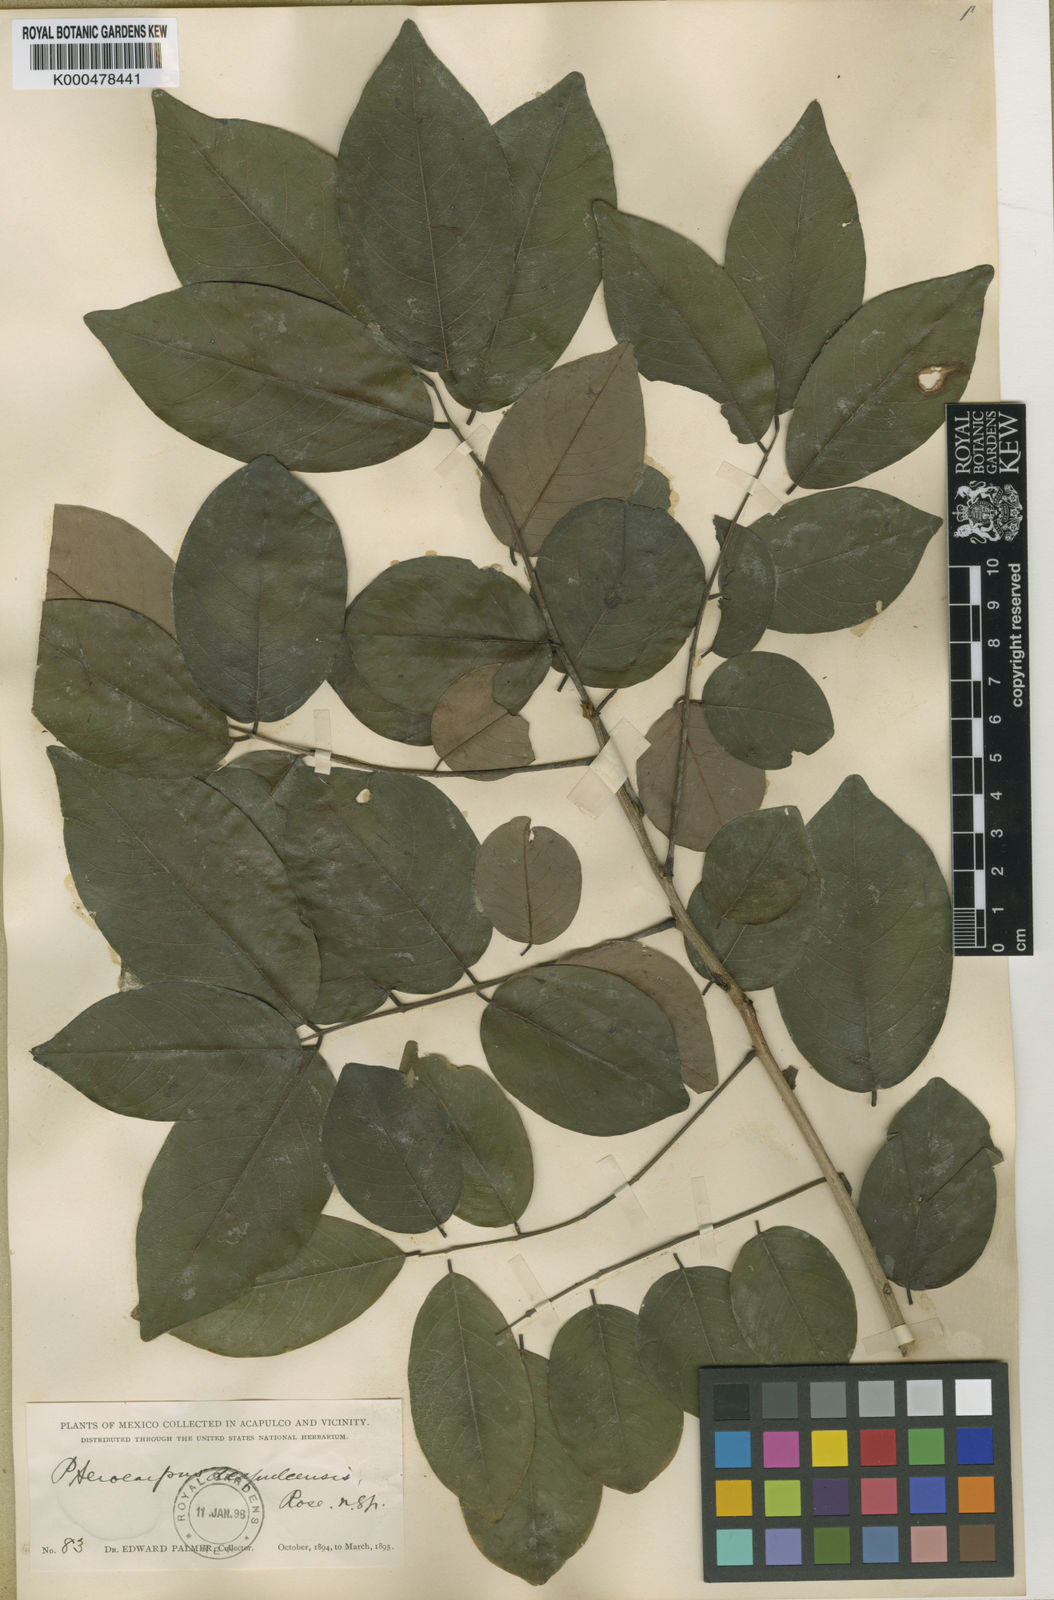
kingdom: Plantae
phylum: Tracheophyta
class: Magnoliopsida
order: Fabales
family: Fabaceae
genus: Pterocarpus
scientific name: Pterocarpus acapulcensis
